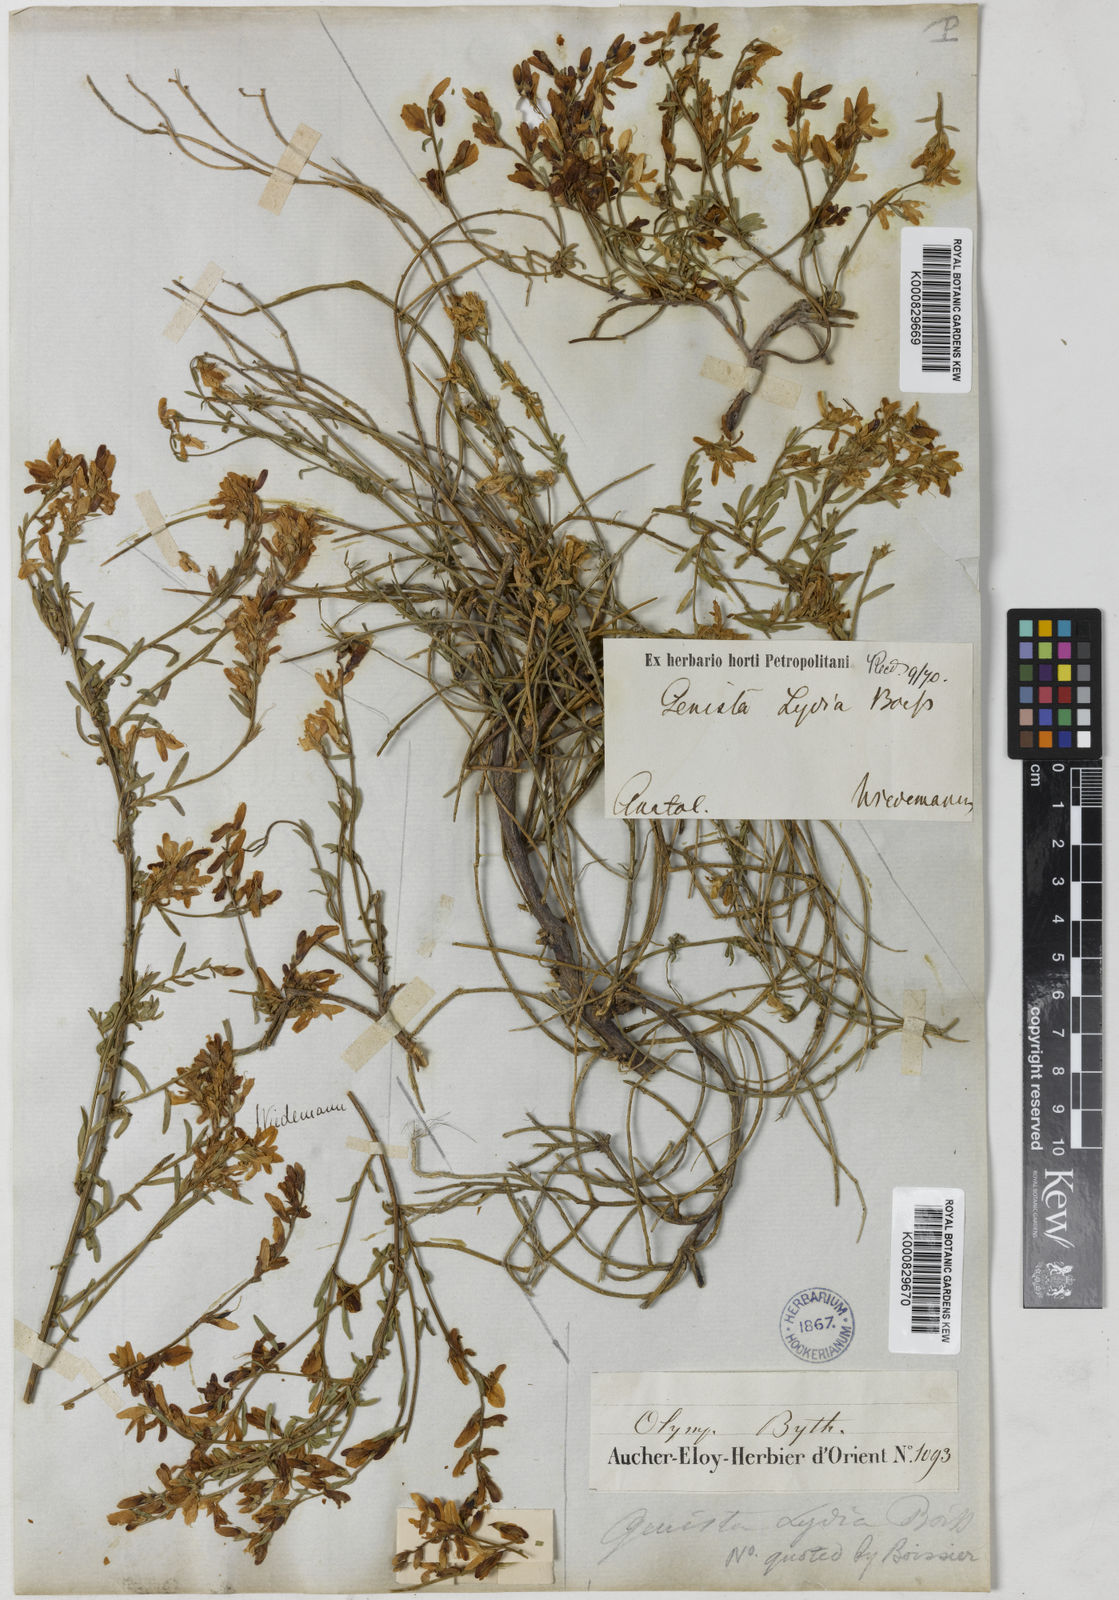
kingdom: Plantae
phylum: Tracheophyta
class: Magnoliopsida
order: Fabales
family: Fabaceae
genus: Genista
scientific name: Genista lydia
